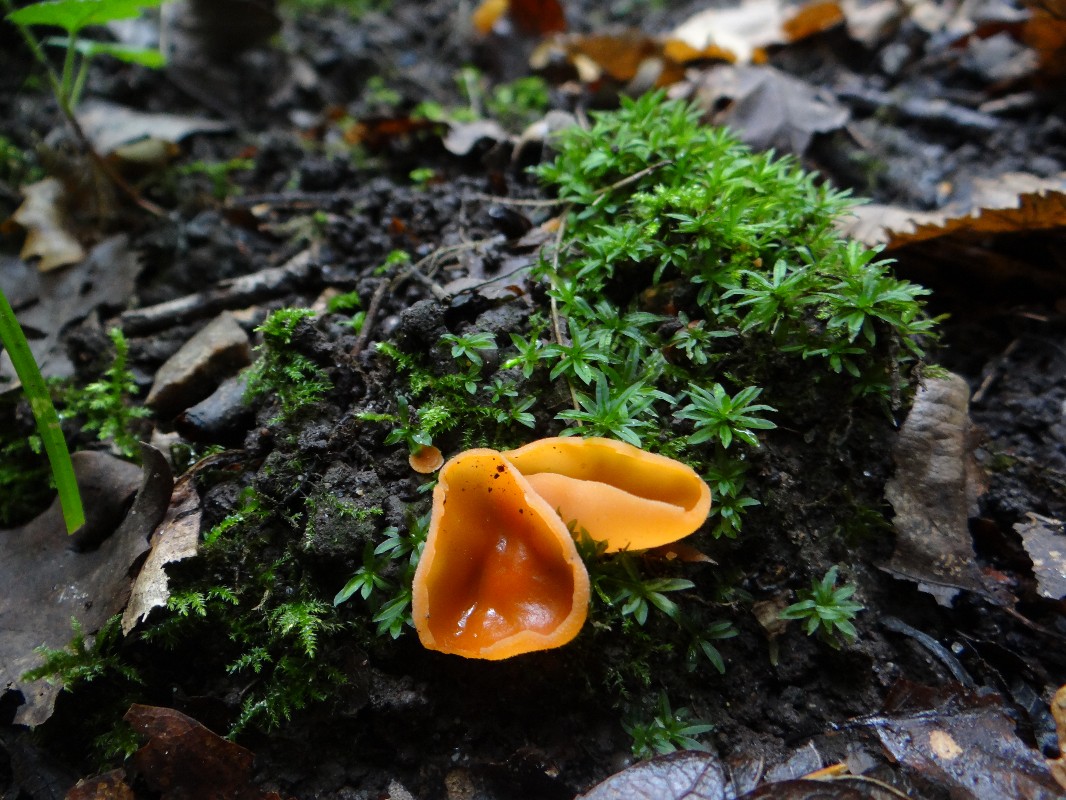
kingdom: Fungi
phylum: Ascomycota
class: Pezizomycetes
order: Pezizales
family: Pyronemataceae
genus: Aleuria
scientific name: Aleuria aurantia
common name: almindelig orangebæger
